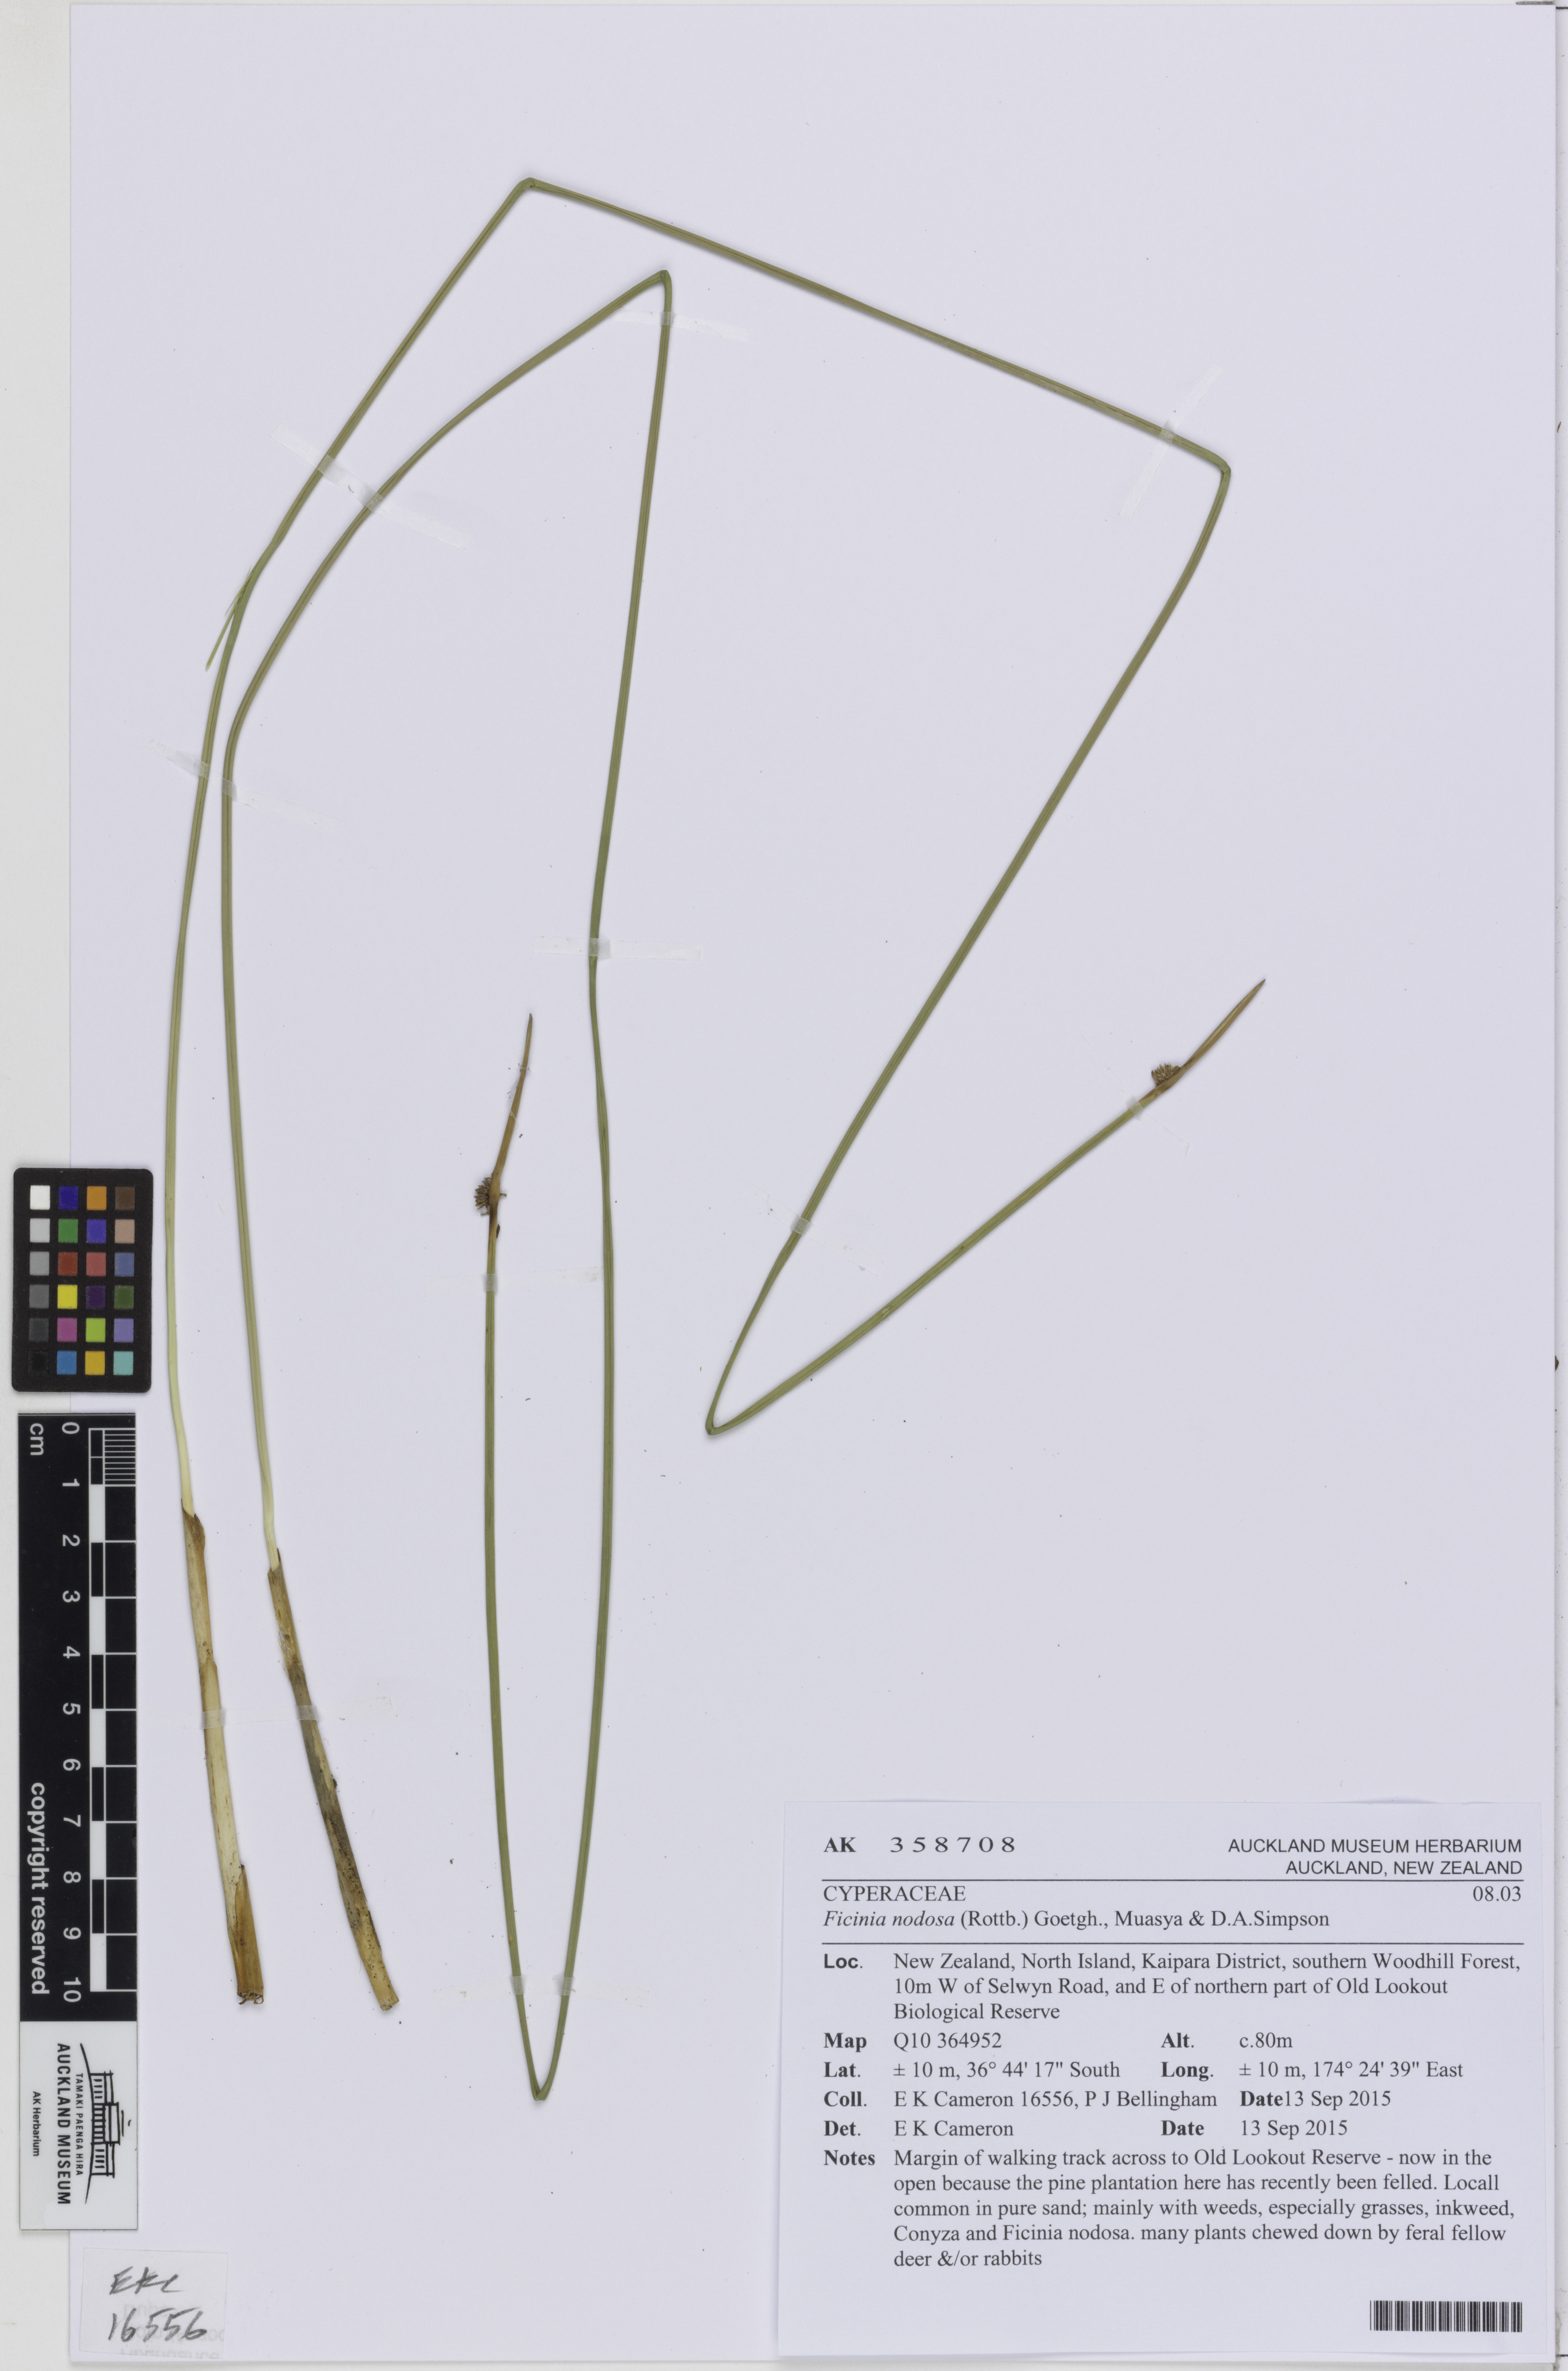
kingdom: Plantae
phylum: Tracheophyta
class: Liliopsida
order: Poales
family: Cyperaceae
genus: Ficinia
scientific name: Ficinia nodosa
